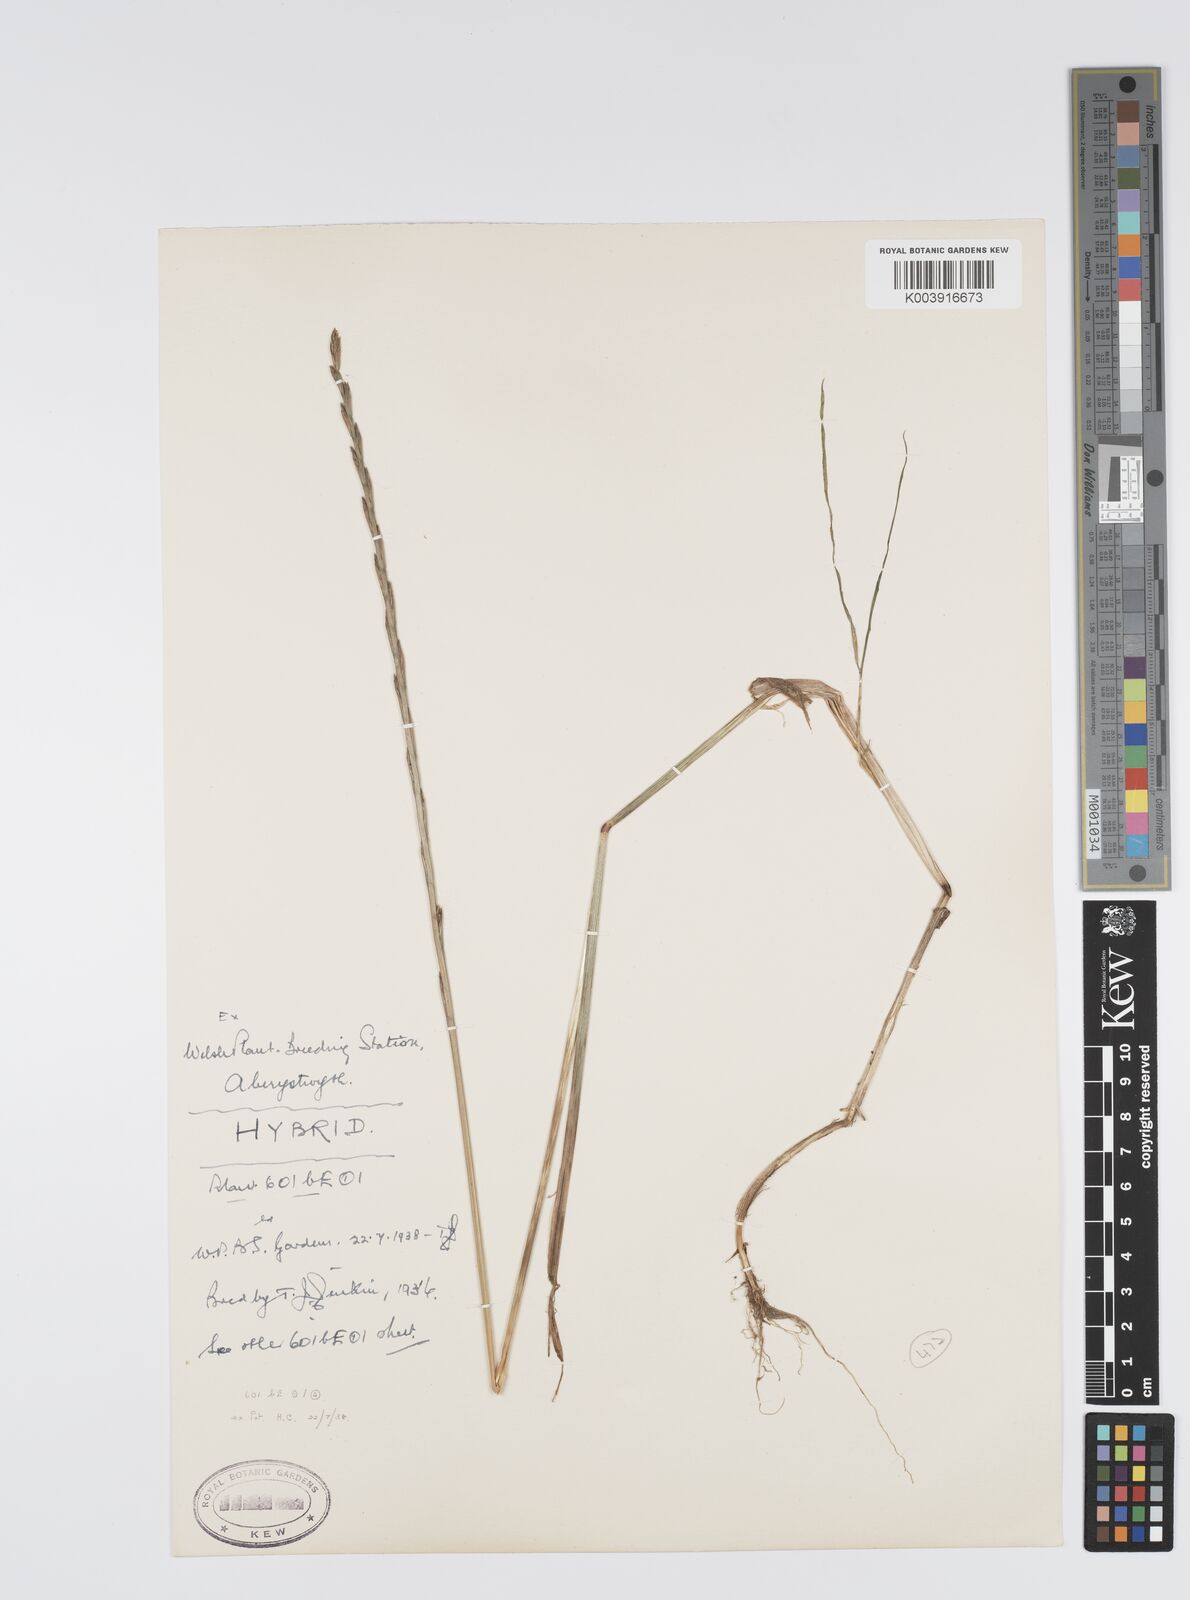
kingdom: Plantae
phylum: Tracheophyta
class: Liliopsida
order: Poales
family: Poaceae
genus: Lolium
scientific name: Lolium perenne
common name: Perennial ryegrass
